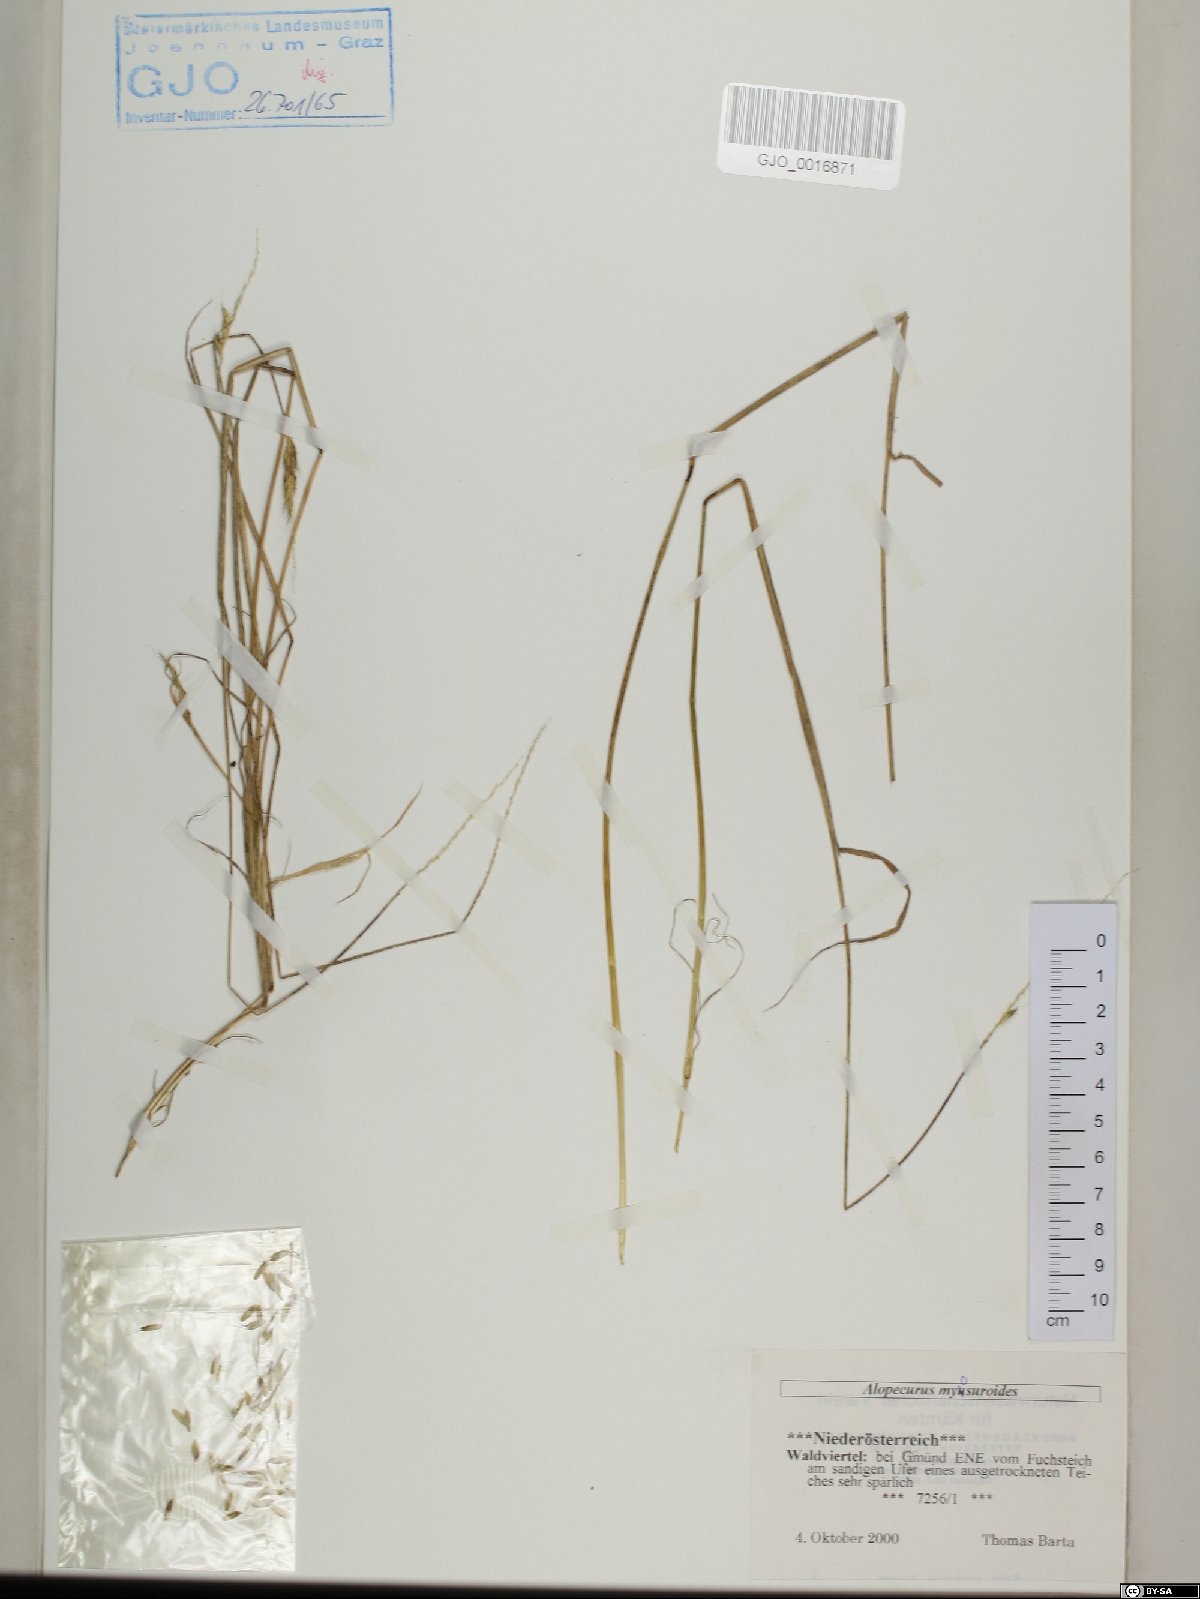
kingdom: Plantae
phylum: Tracheophyta
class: Liliopsida
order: Poales
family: Poaceae
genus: Alopecurus
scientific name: Alopecurus myosuroides
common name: Black-grass
